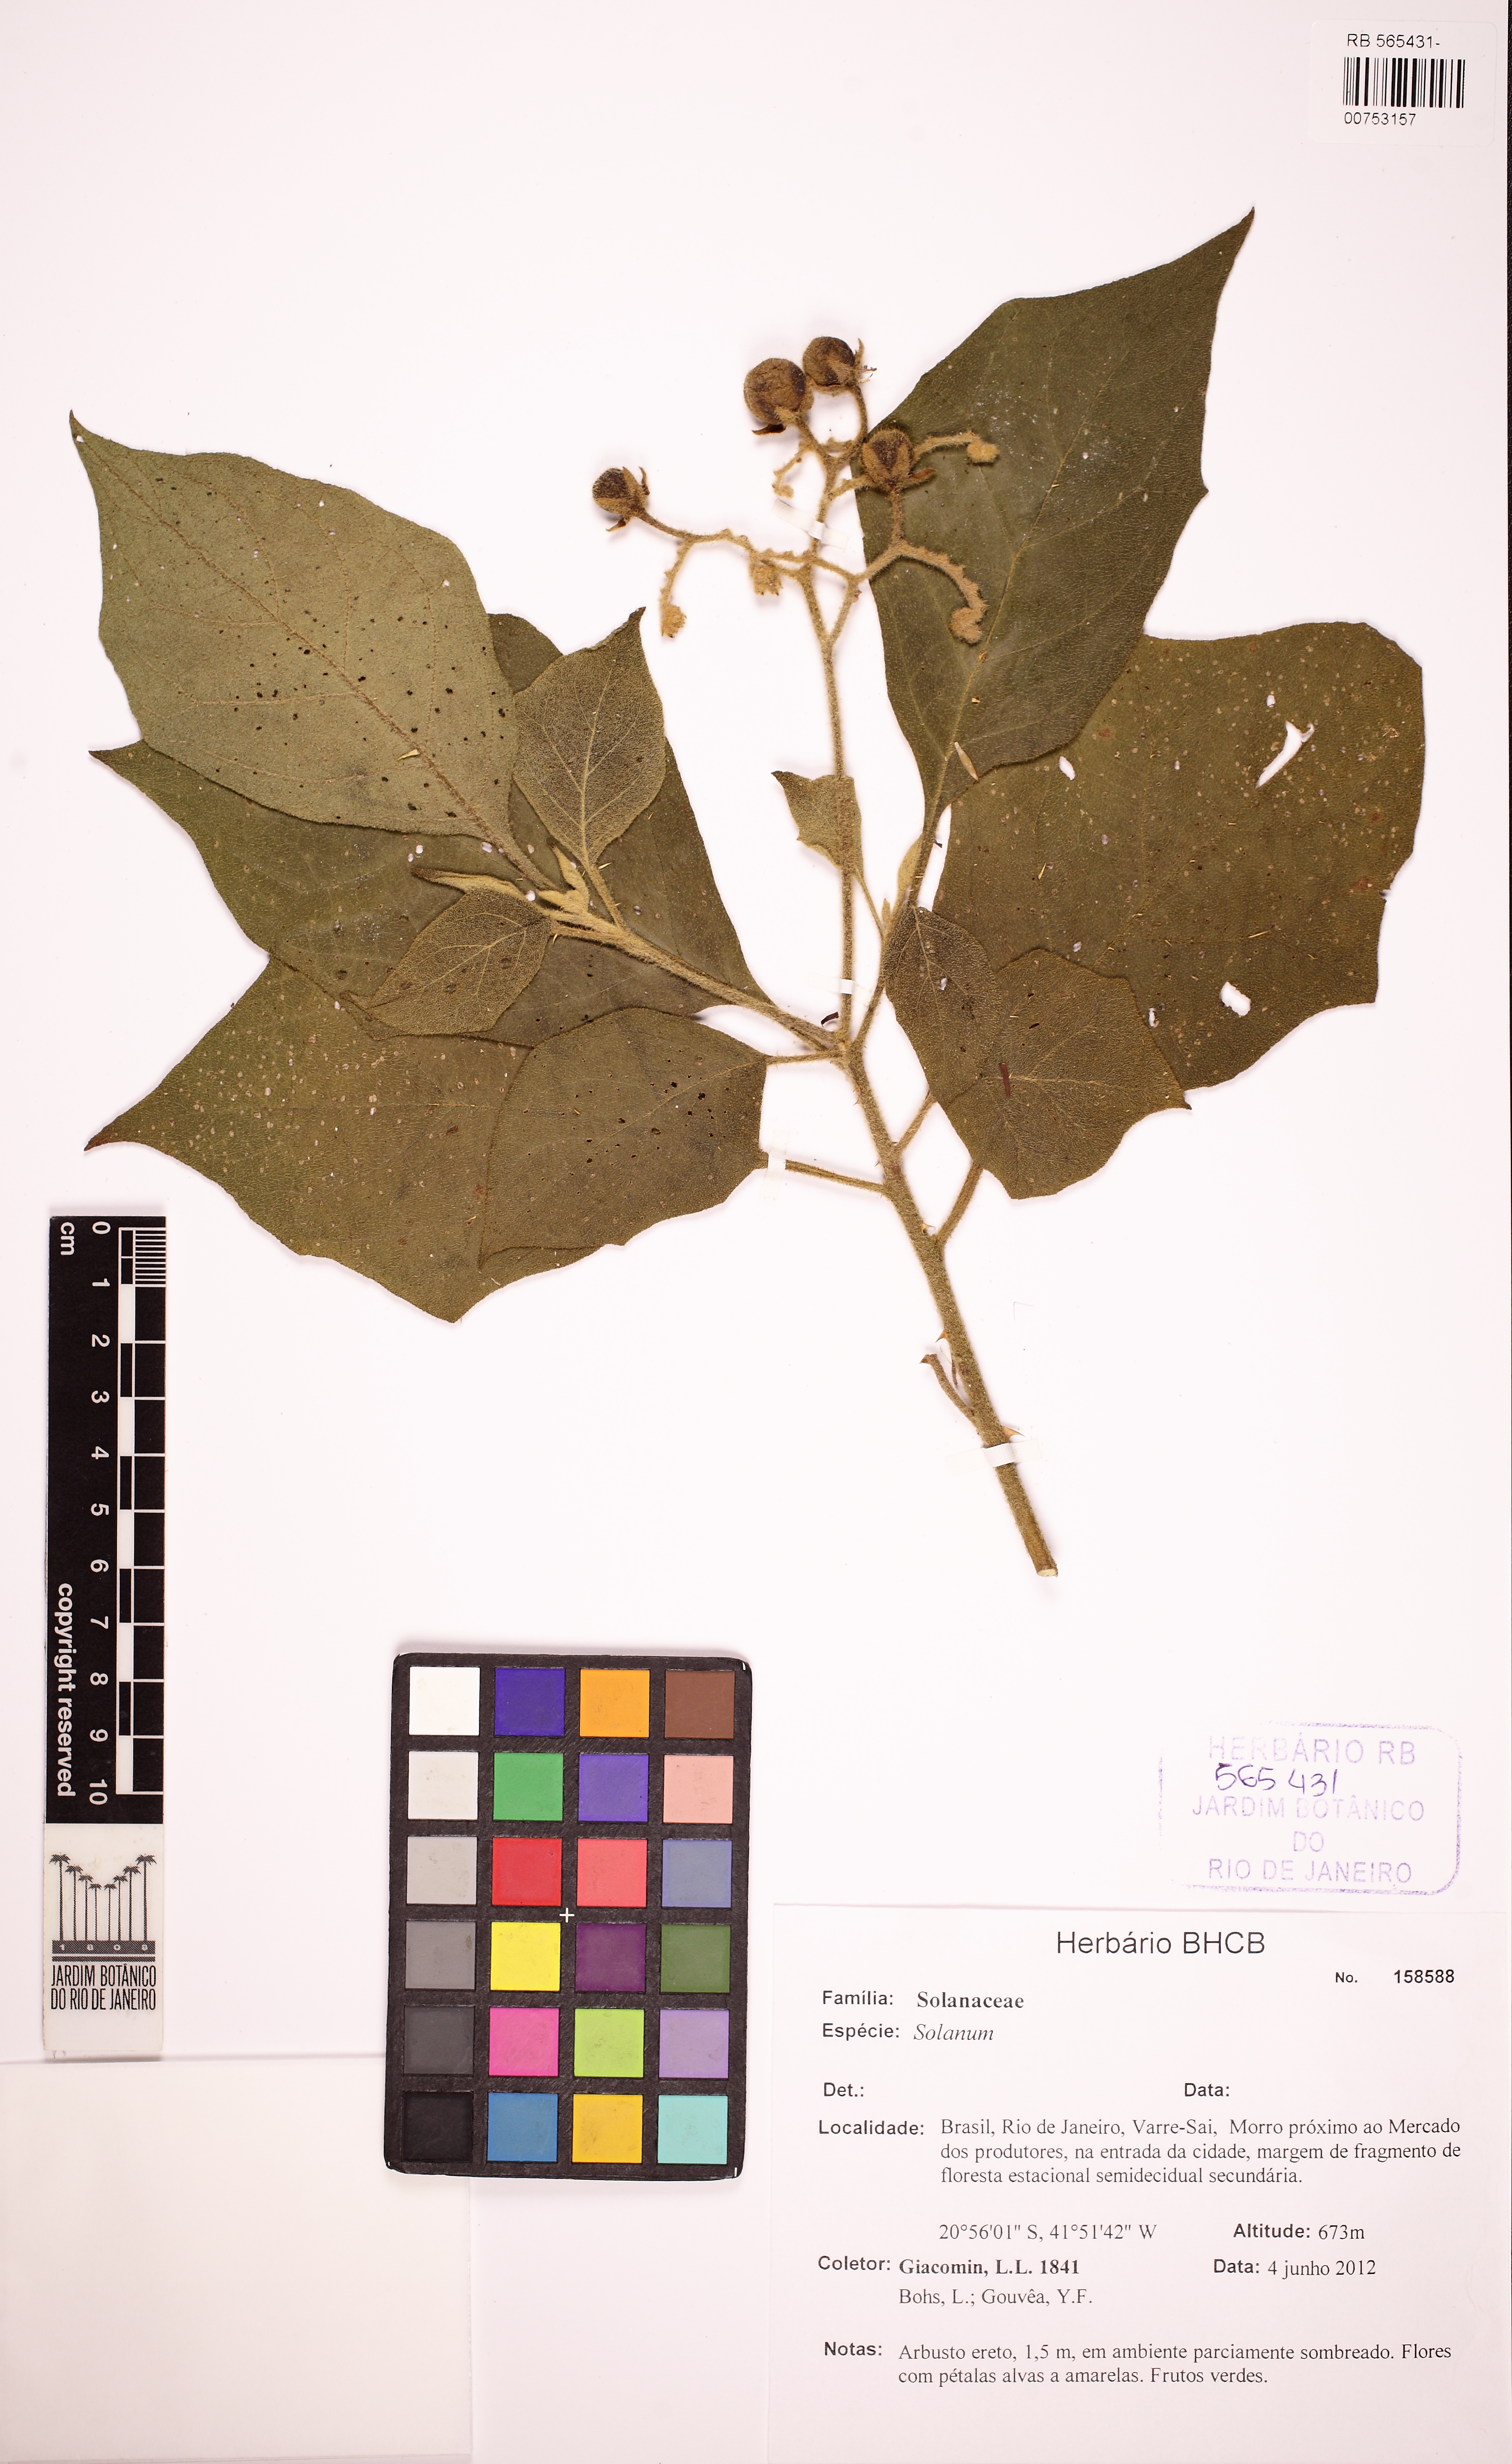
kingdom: Plantae
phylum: Tracheophyta
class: Magnoliopsida
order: Solanales
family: Solanaceae
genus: Solanum
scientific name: Solanum insidiosum
